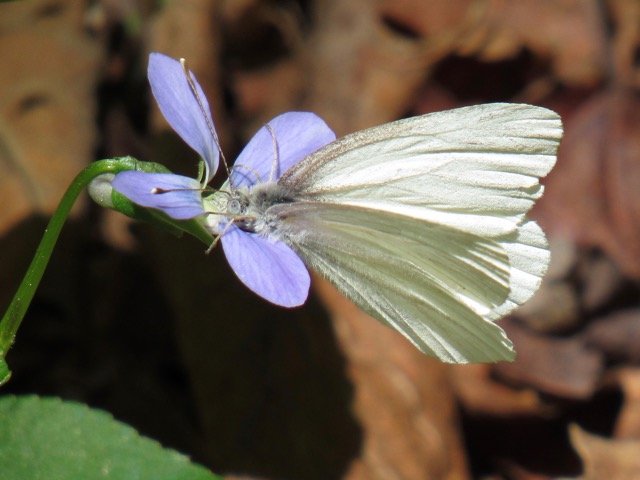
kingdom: Animalia
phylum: Arthropoda
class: Insecta
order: Lepidoptera
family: Pieridae
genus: Pieris
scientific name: Pieris virginiensis
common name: West Virginia White
